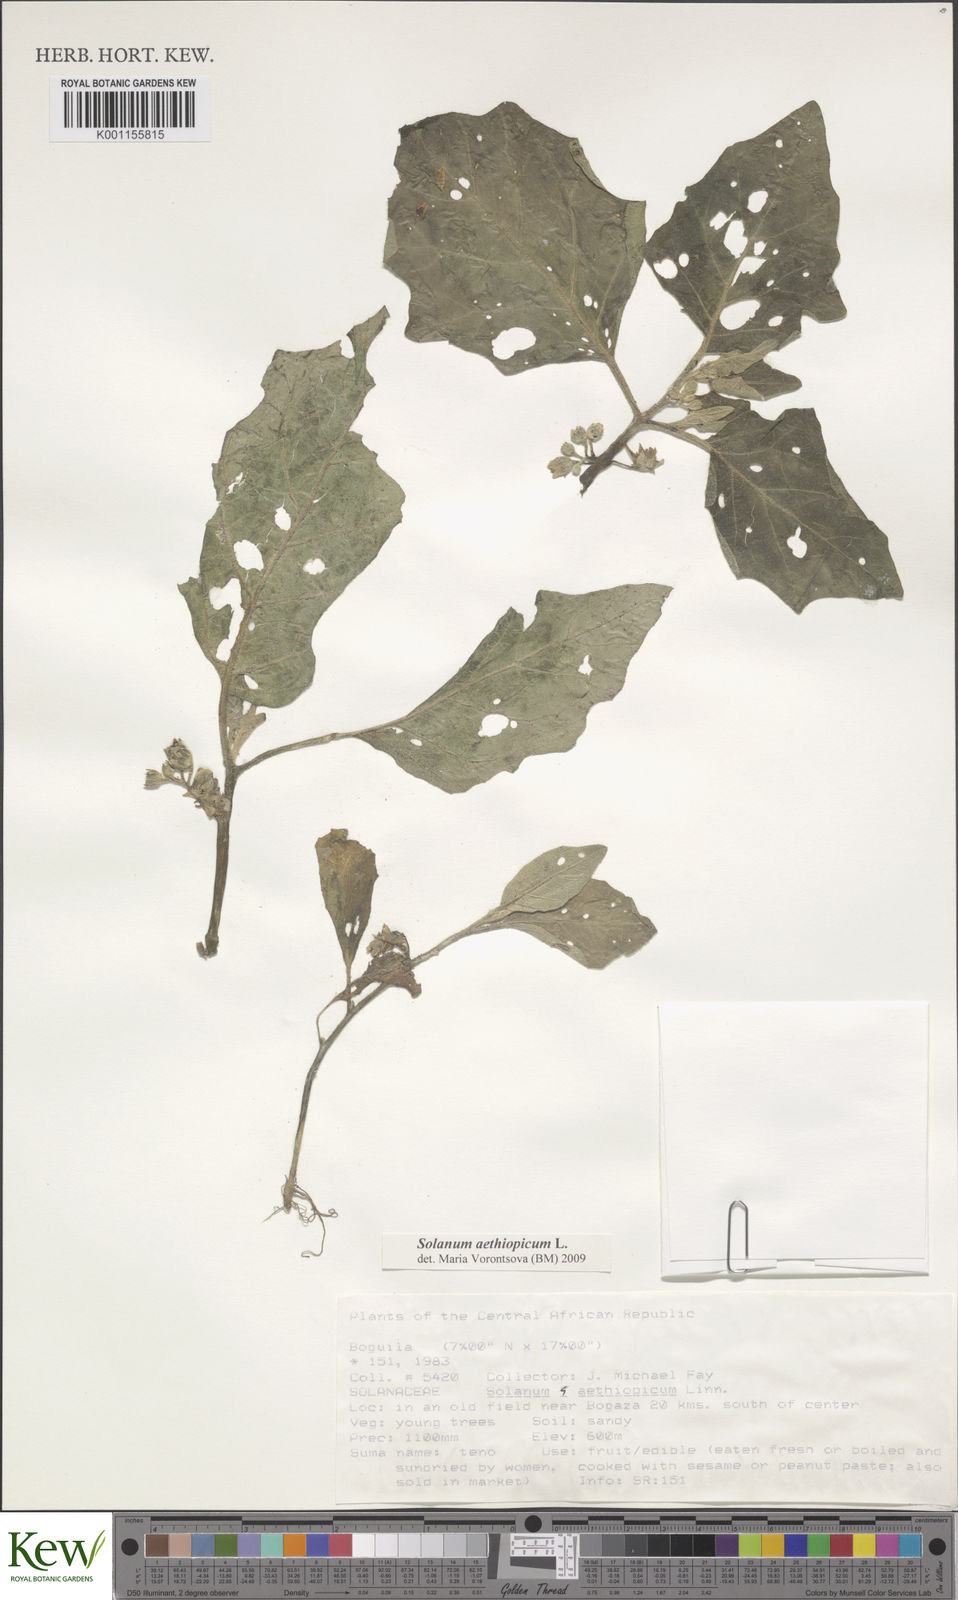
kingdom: Plantae
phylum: Tracheophyta
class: Magnoliopsida
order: Solanales
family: Solanaceae
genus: Solanum
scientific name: Solanum aethiopicum
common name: Gilo
